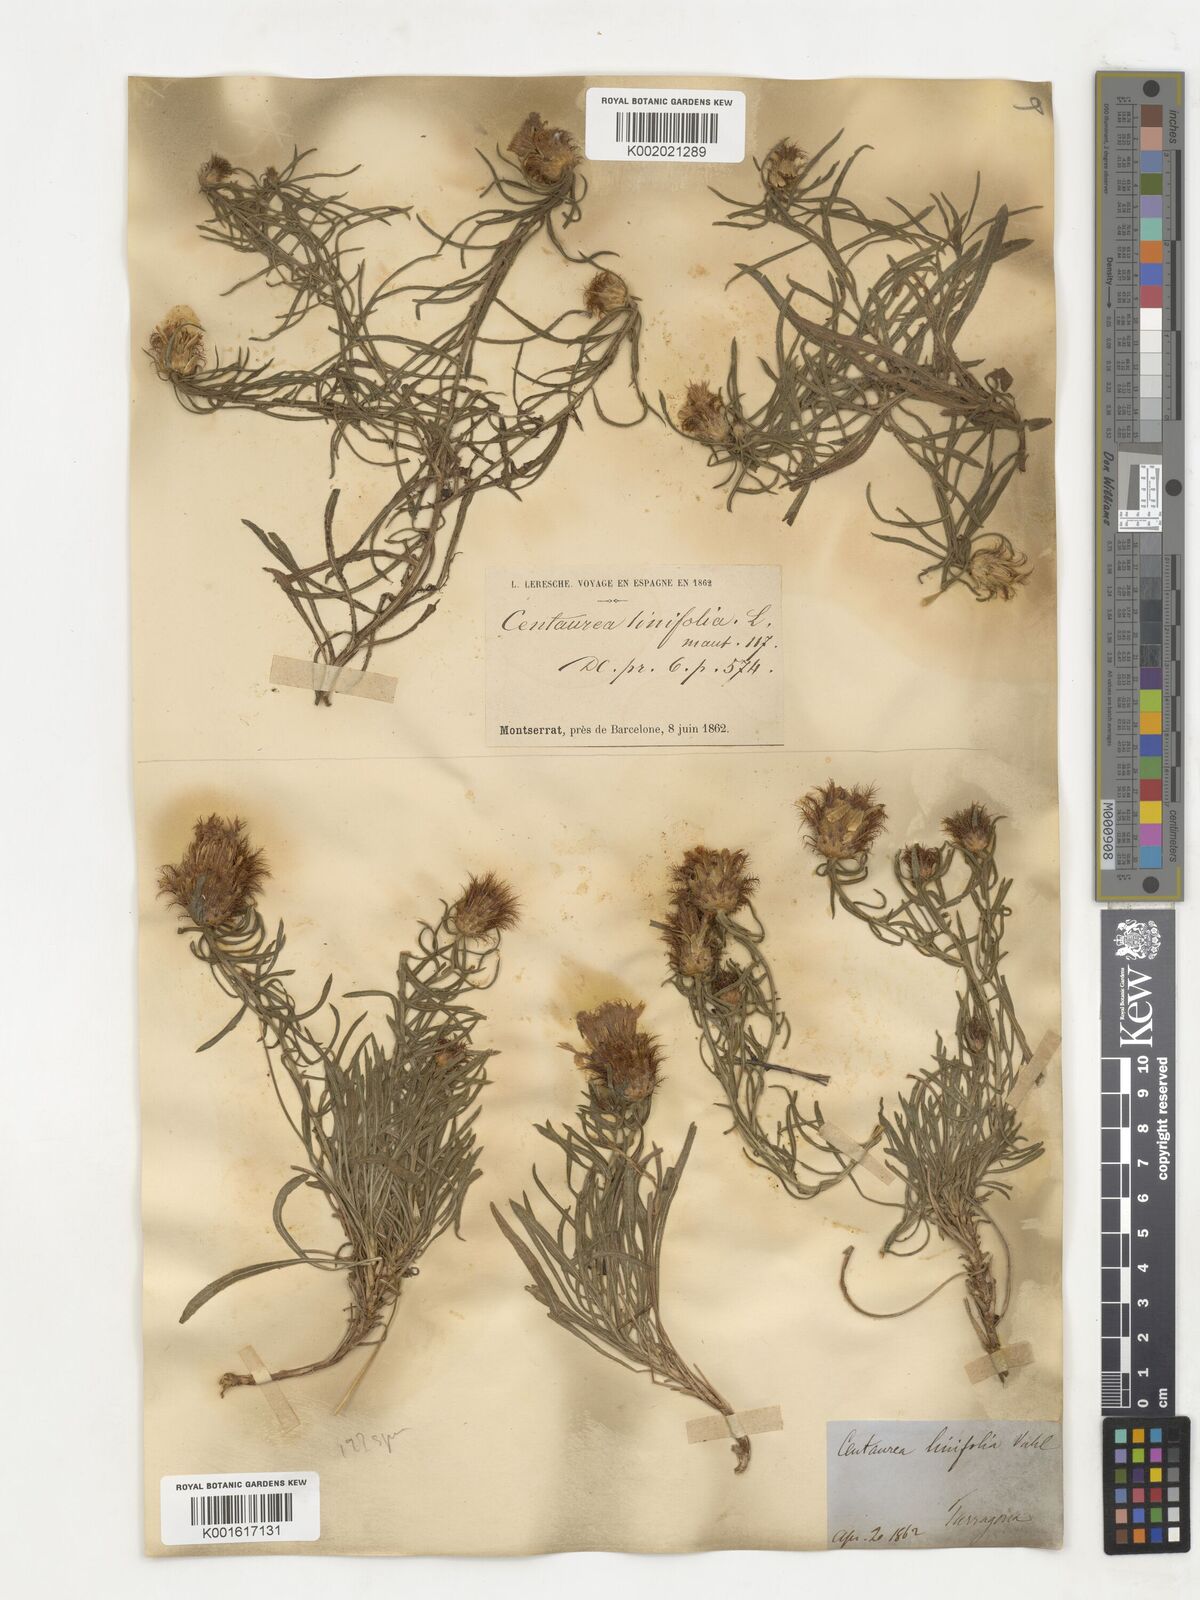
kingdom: Plantae
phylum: Tracheophyta
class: Magnoliopsida
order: Asterales
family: Asteraceae
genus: Centaurea
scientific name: Centaurea linifolia
